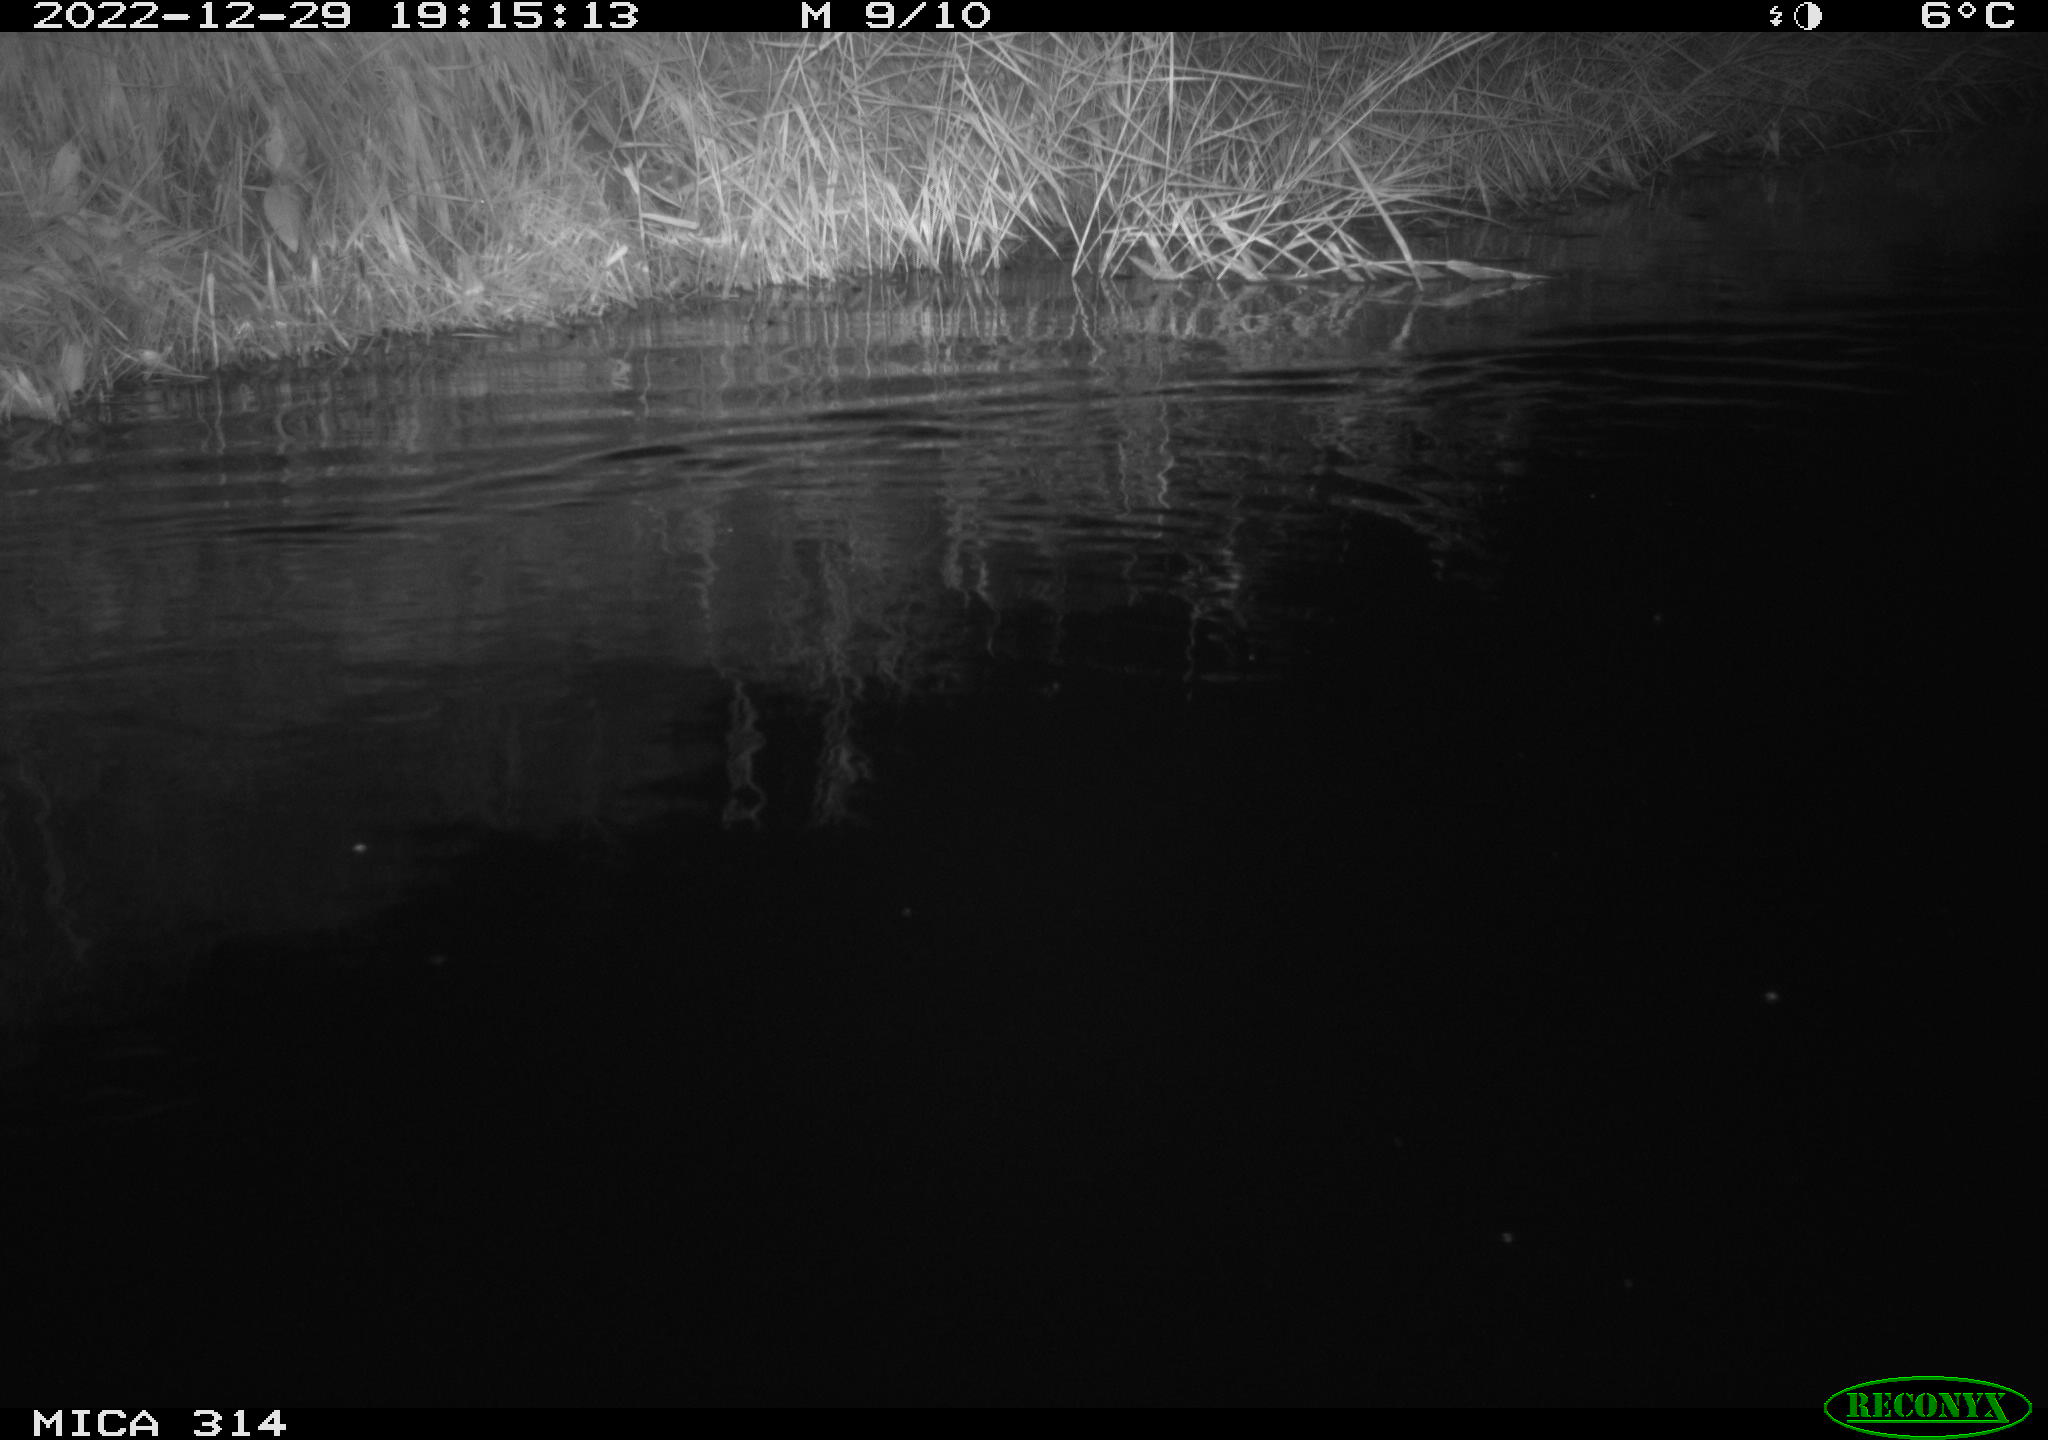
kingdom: Animalia
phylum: Chordata
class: Mammalia
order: Rodentia
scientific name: Rodentia
